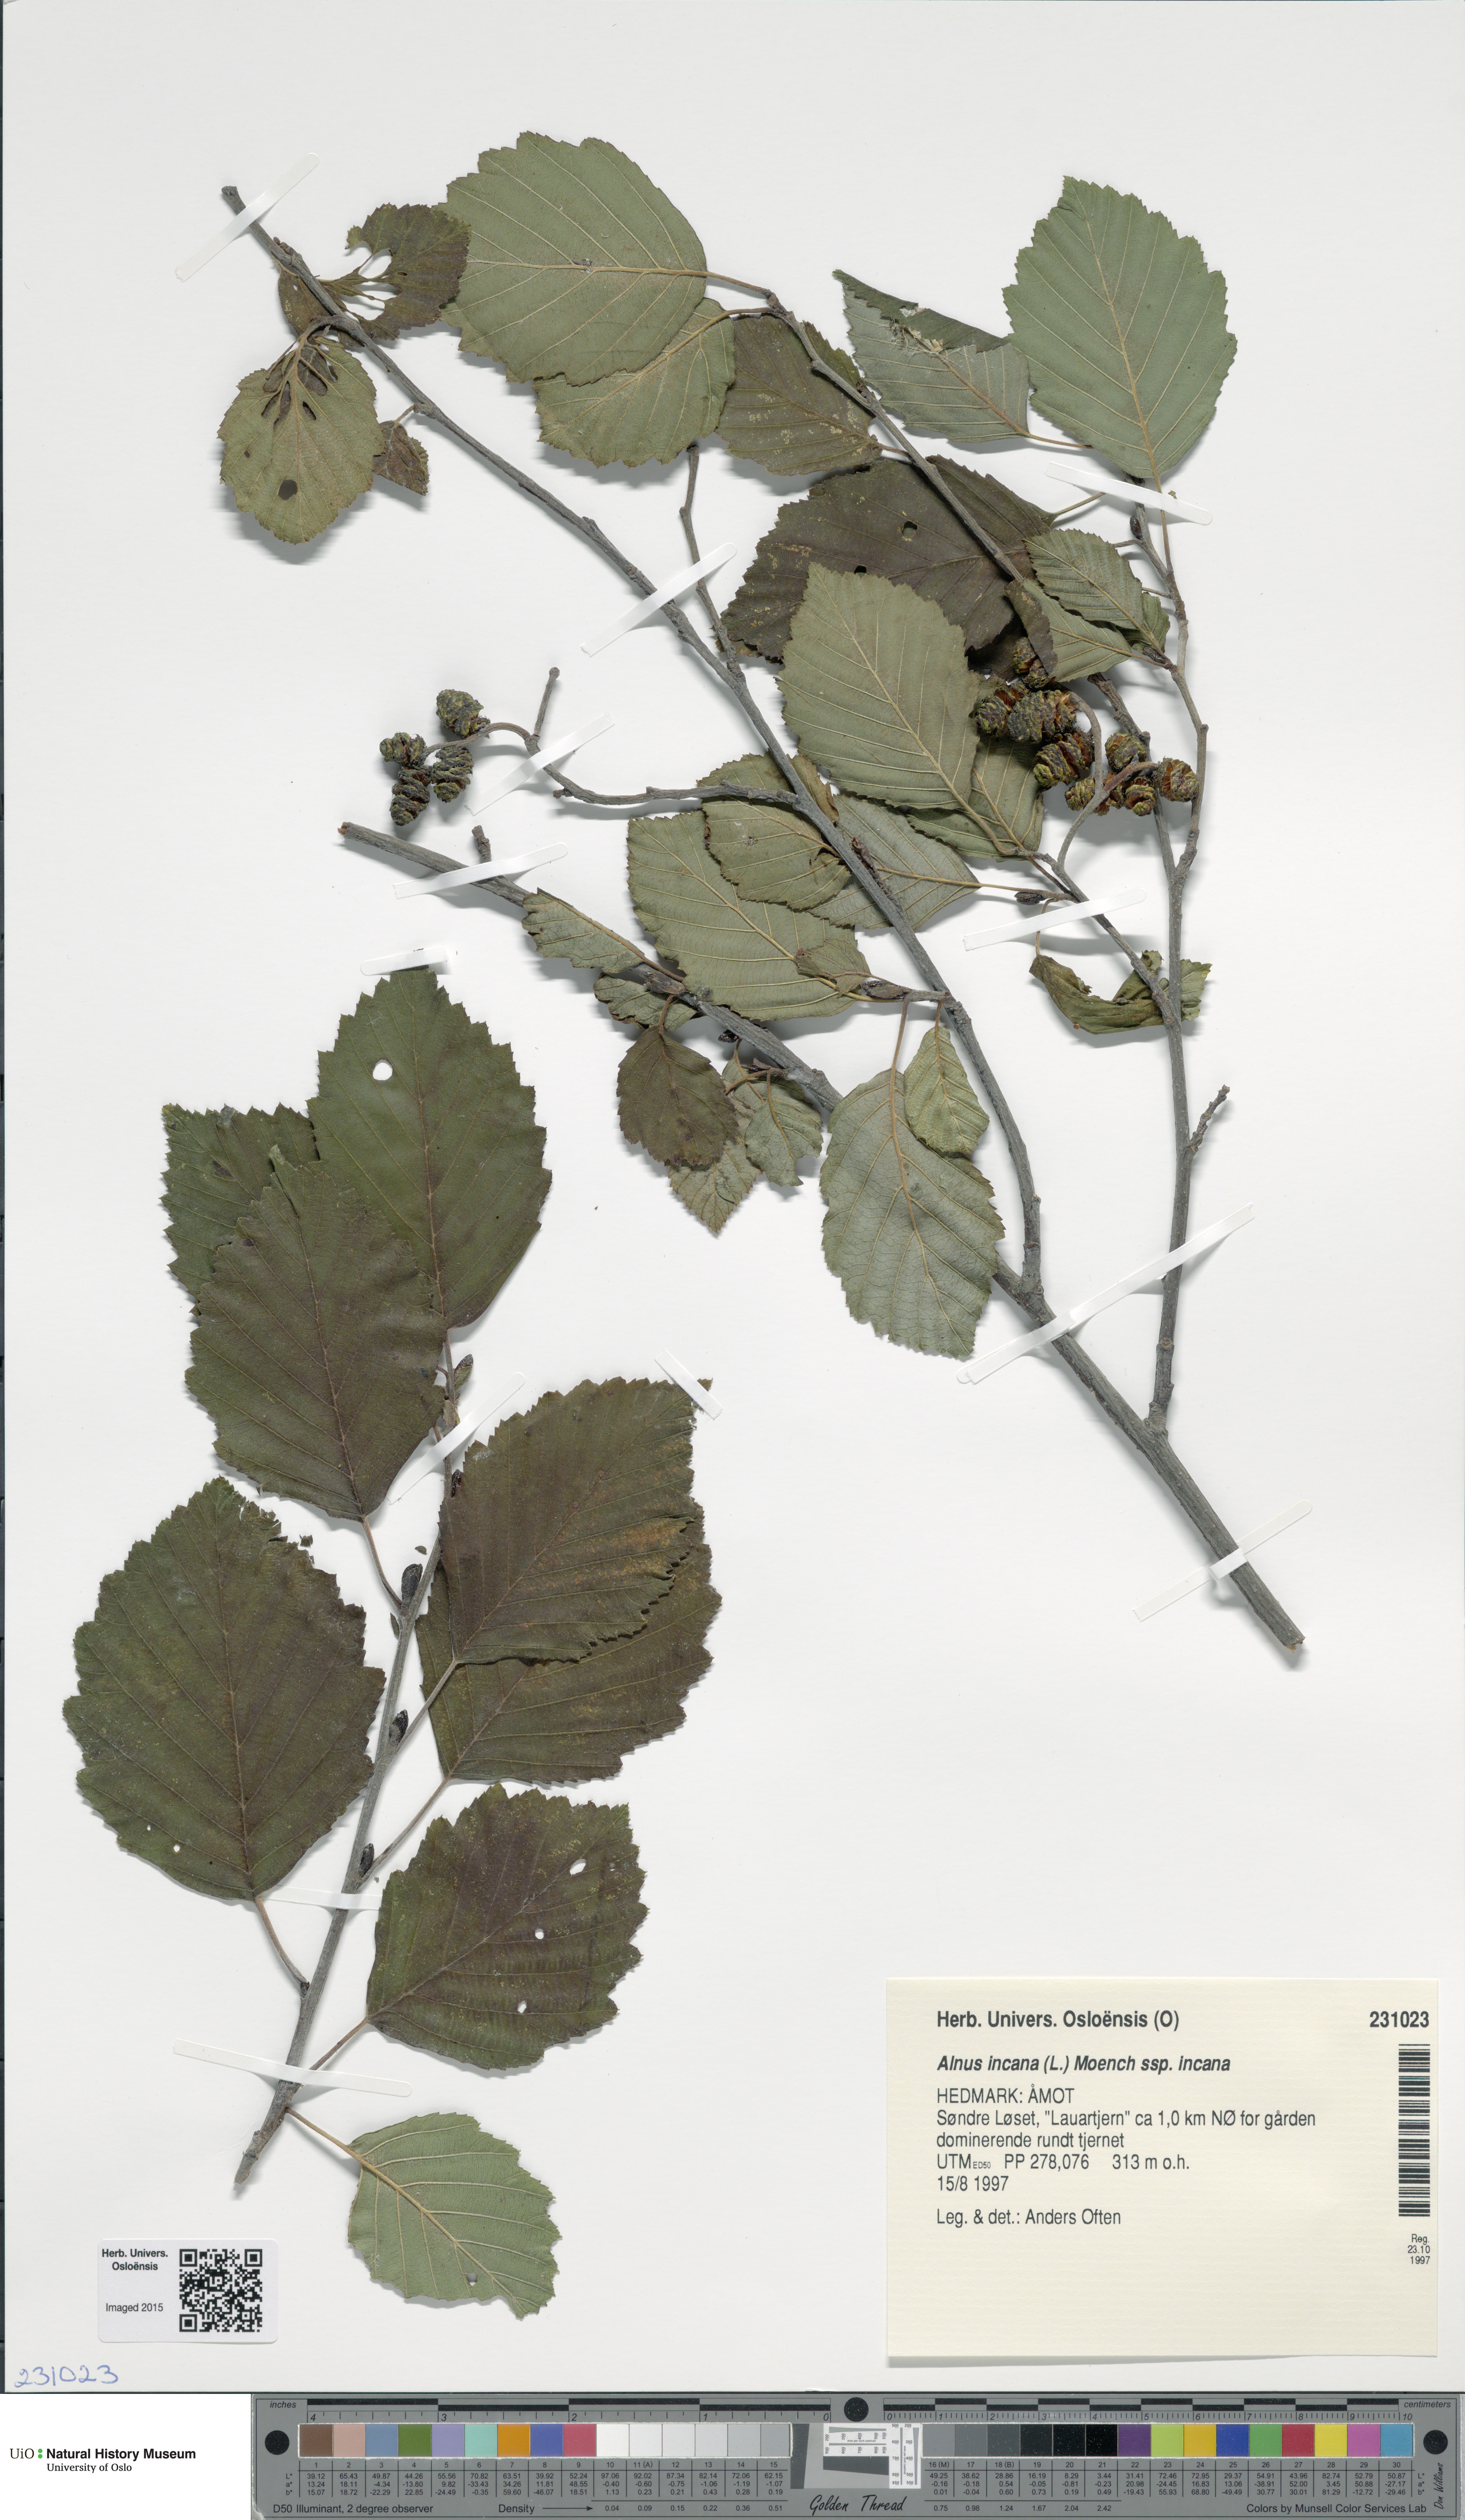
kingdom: Plantae
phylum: Tracheophyta
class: Magnoliopsida
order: Fagales
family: Betulaceae
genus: Alnus
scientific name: Alnus incana
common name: Grey alder
